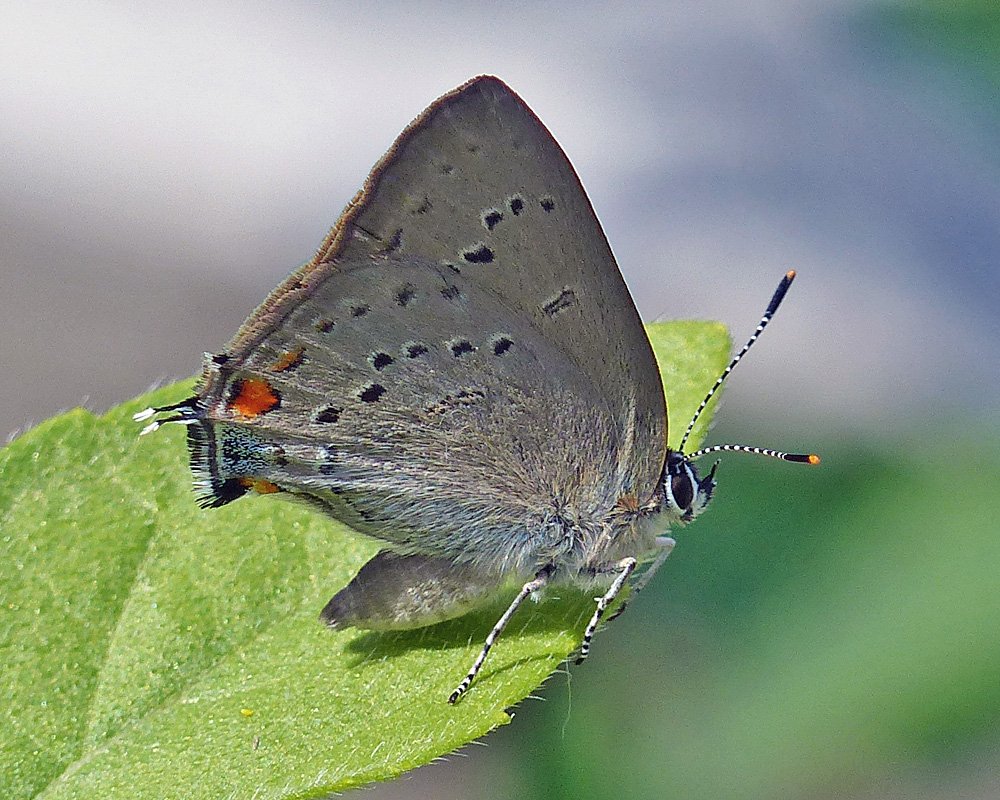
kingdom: Animalia
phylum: Arthropoda
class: Insecta
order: Lepidoptera
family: Lycaenidae
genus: Strymon
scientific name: Strymon sylvinus
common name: Sylvan Hairstreak
